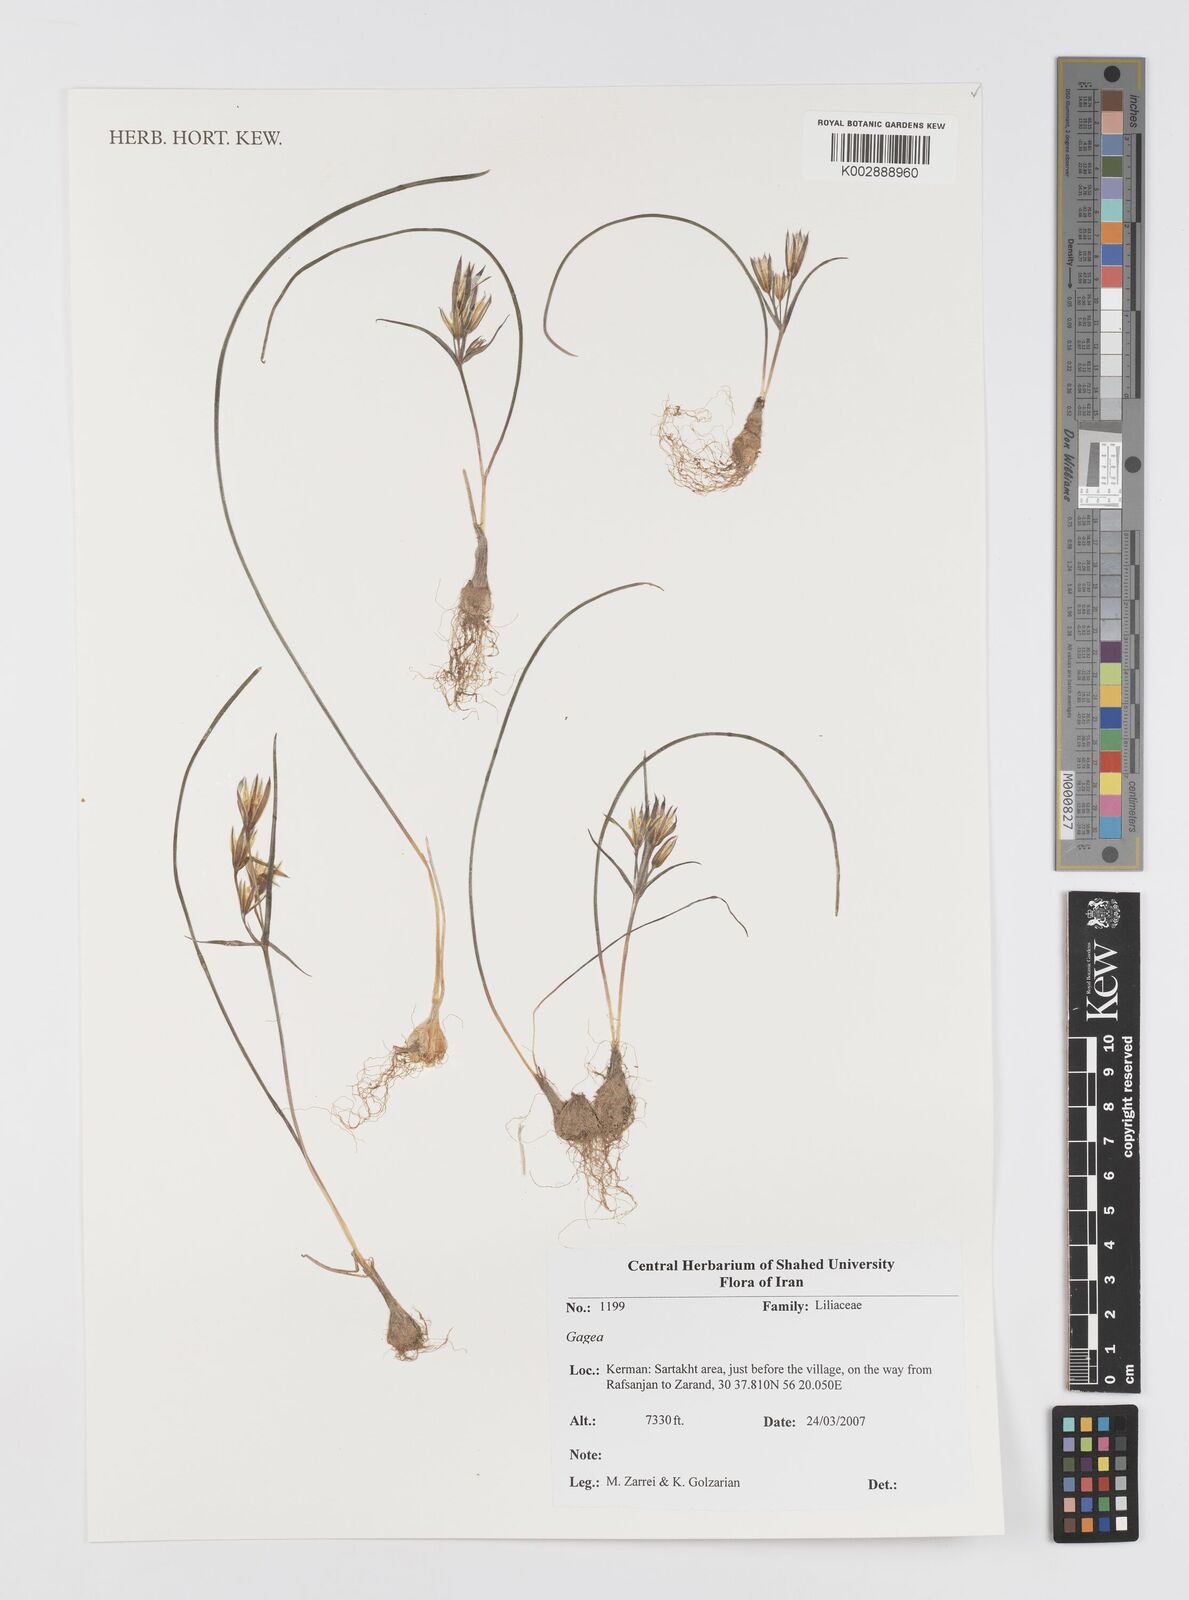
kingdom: Plantae
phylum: Tracheophyta
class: Liliopsida
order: Liliales
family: Liliaceae
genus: Gagea
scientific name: Gagea
